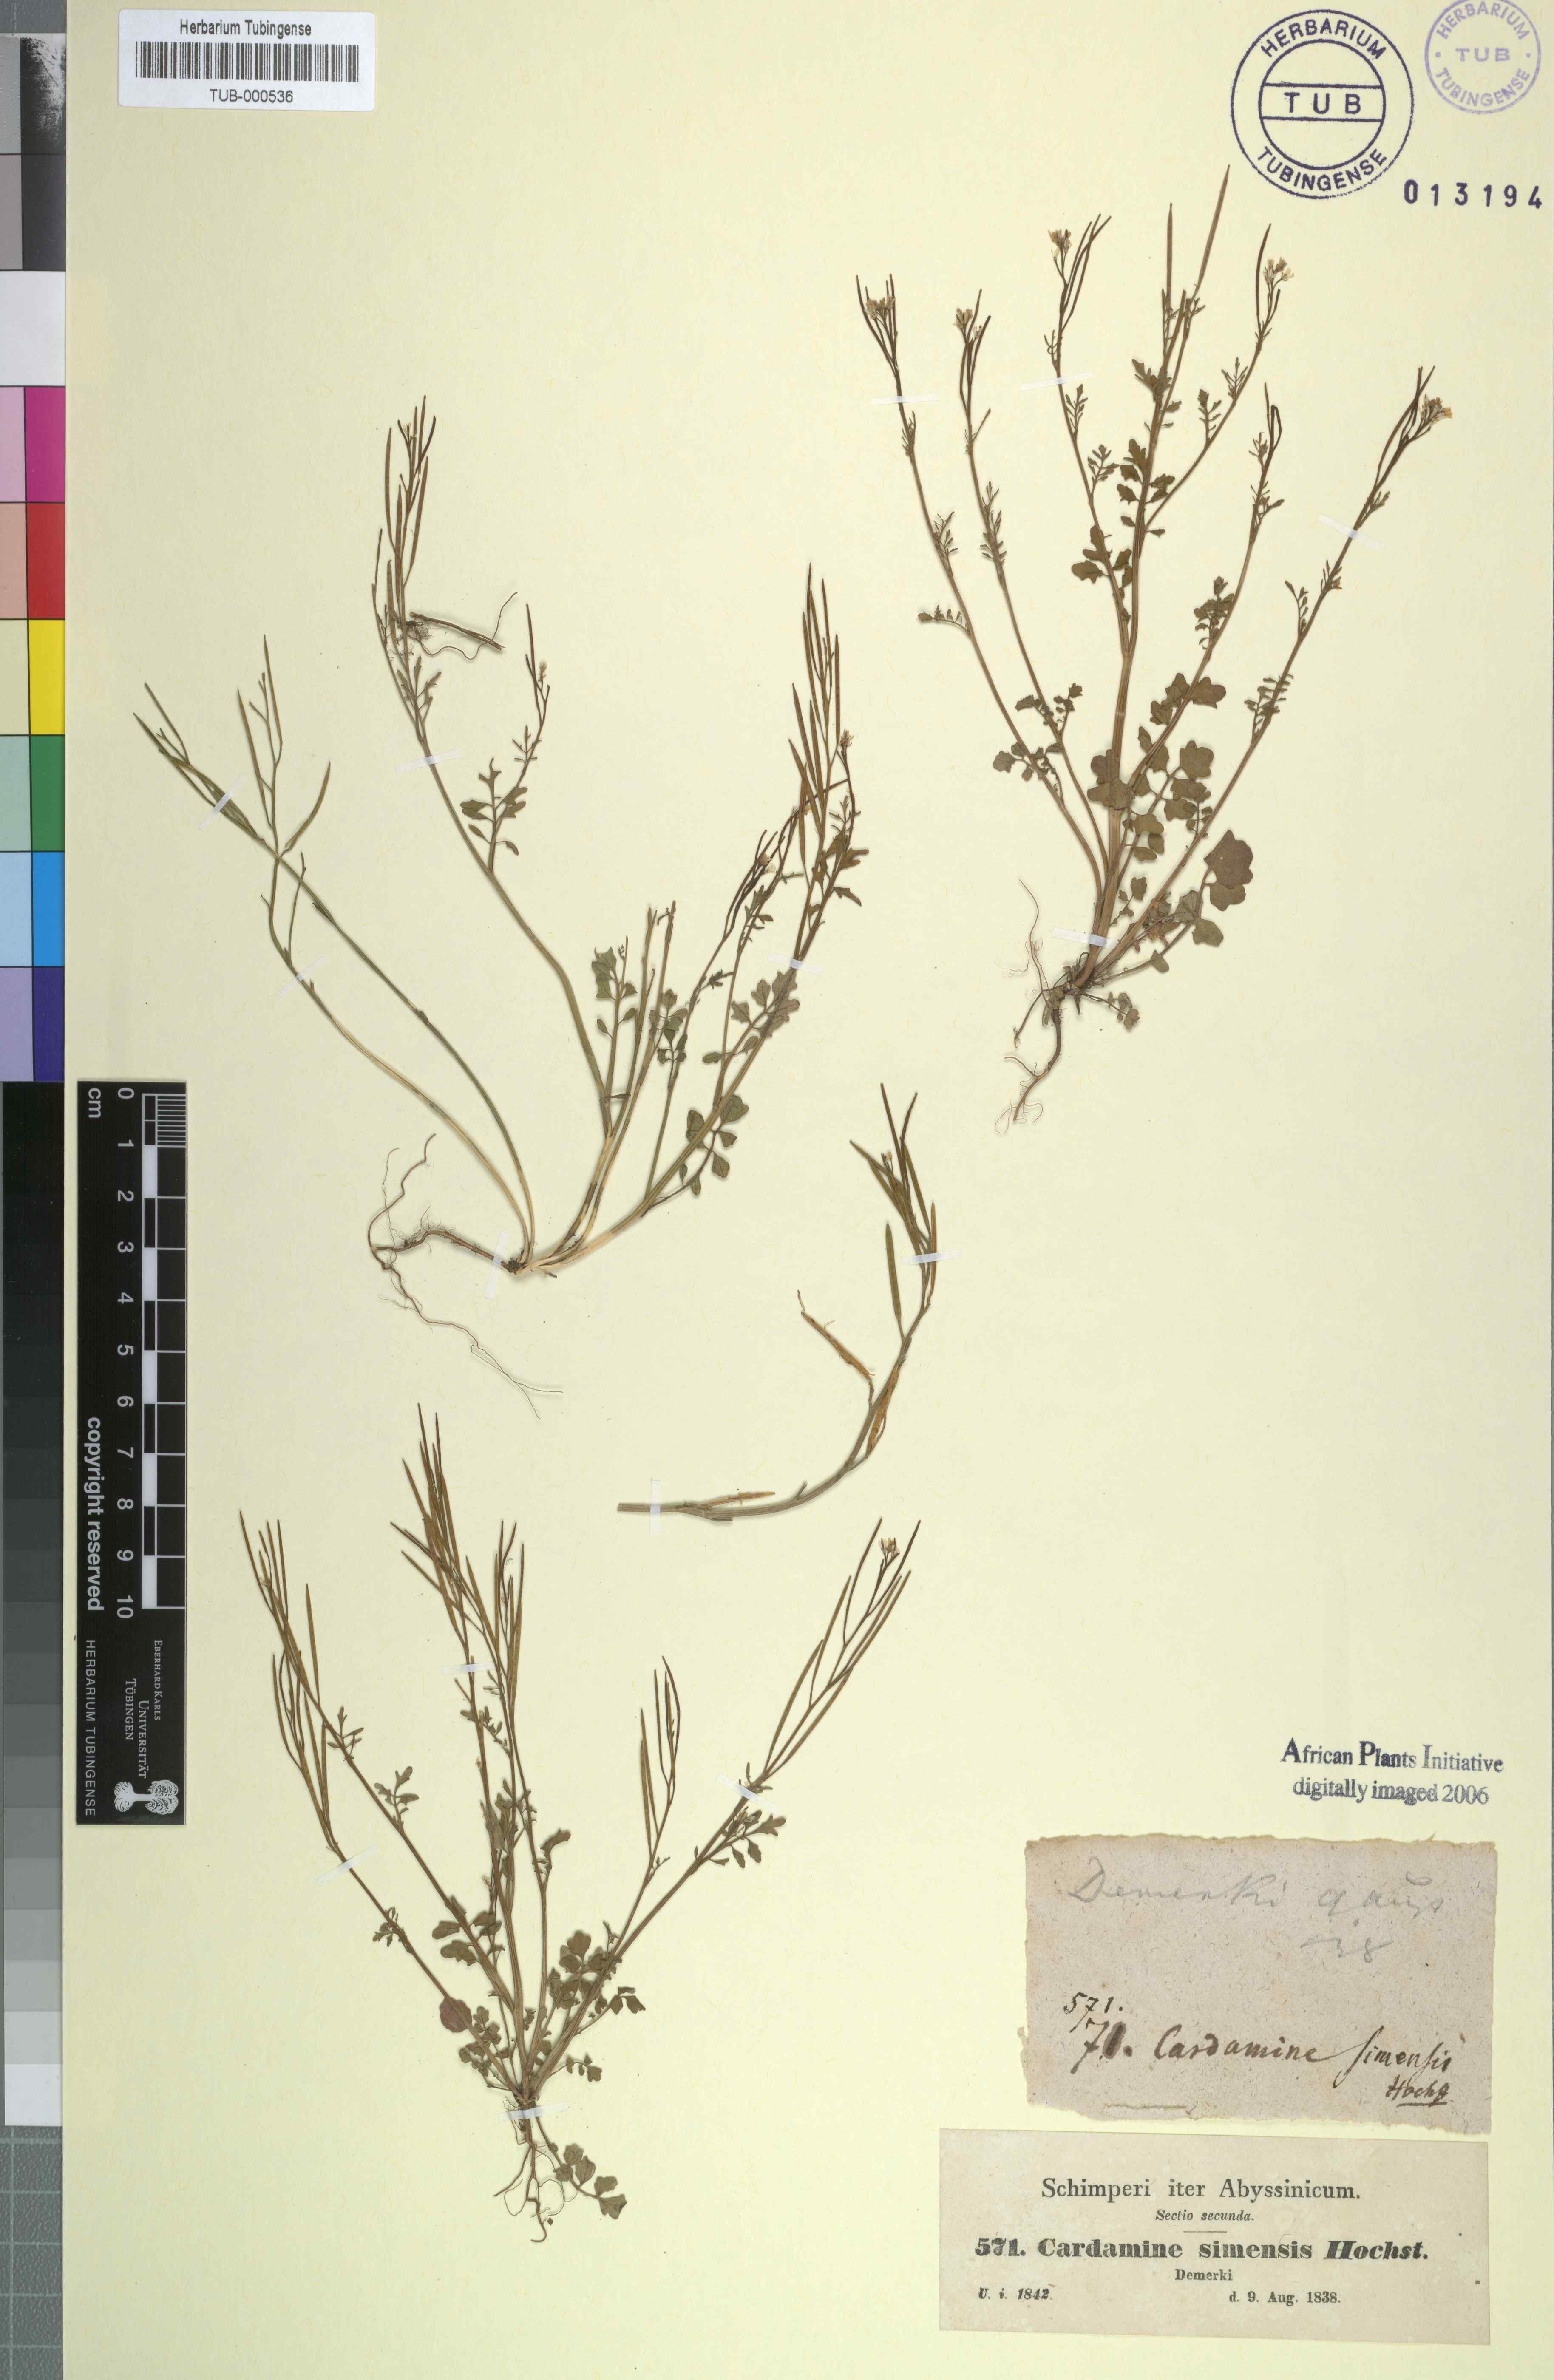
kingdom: Plantae
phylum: Tracheophyta
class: Magnoliopsida
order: Brassicales
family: Brassicaceae
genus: Cardamine
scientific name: Cardamine hirsuta
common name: Hairy bittercress
